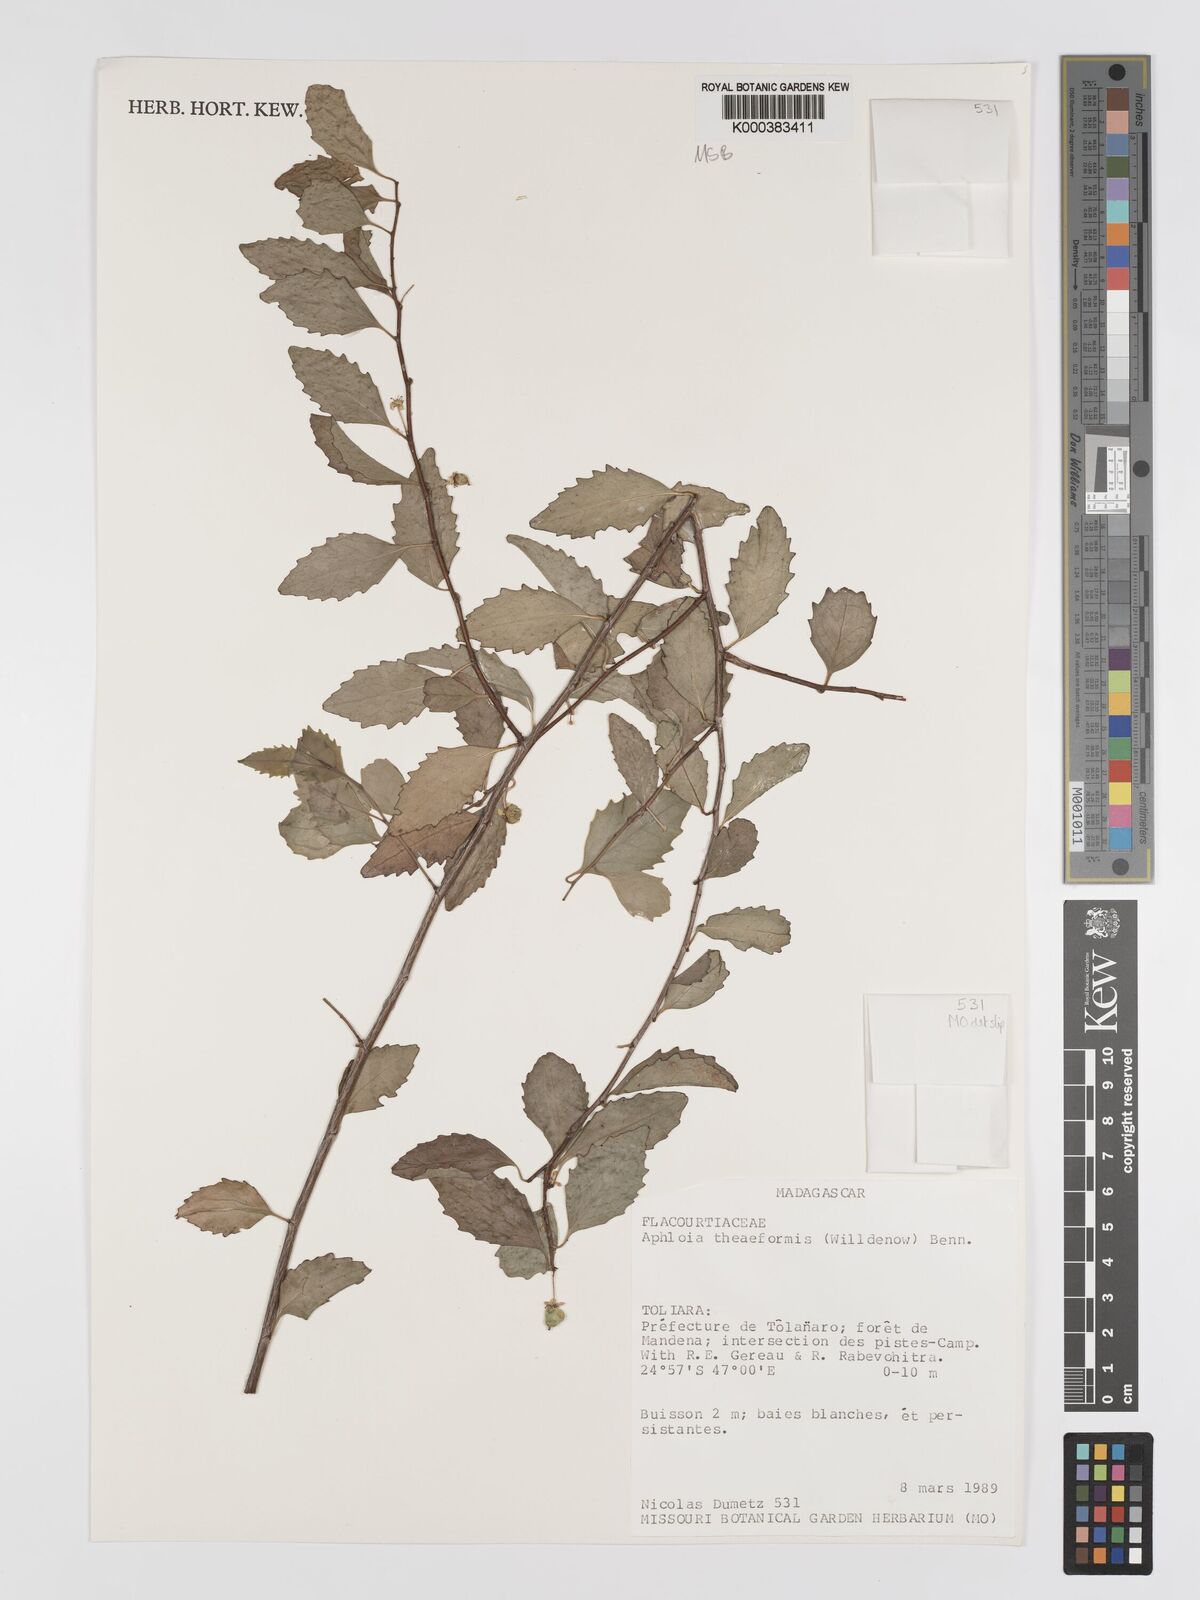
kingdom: Plantae
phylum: Tracheophyta
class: Magnoliopsida
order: Crossosomatales
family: Aphloiaceae
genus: Aphloia
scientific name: Aphloia theiformis
